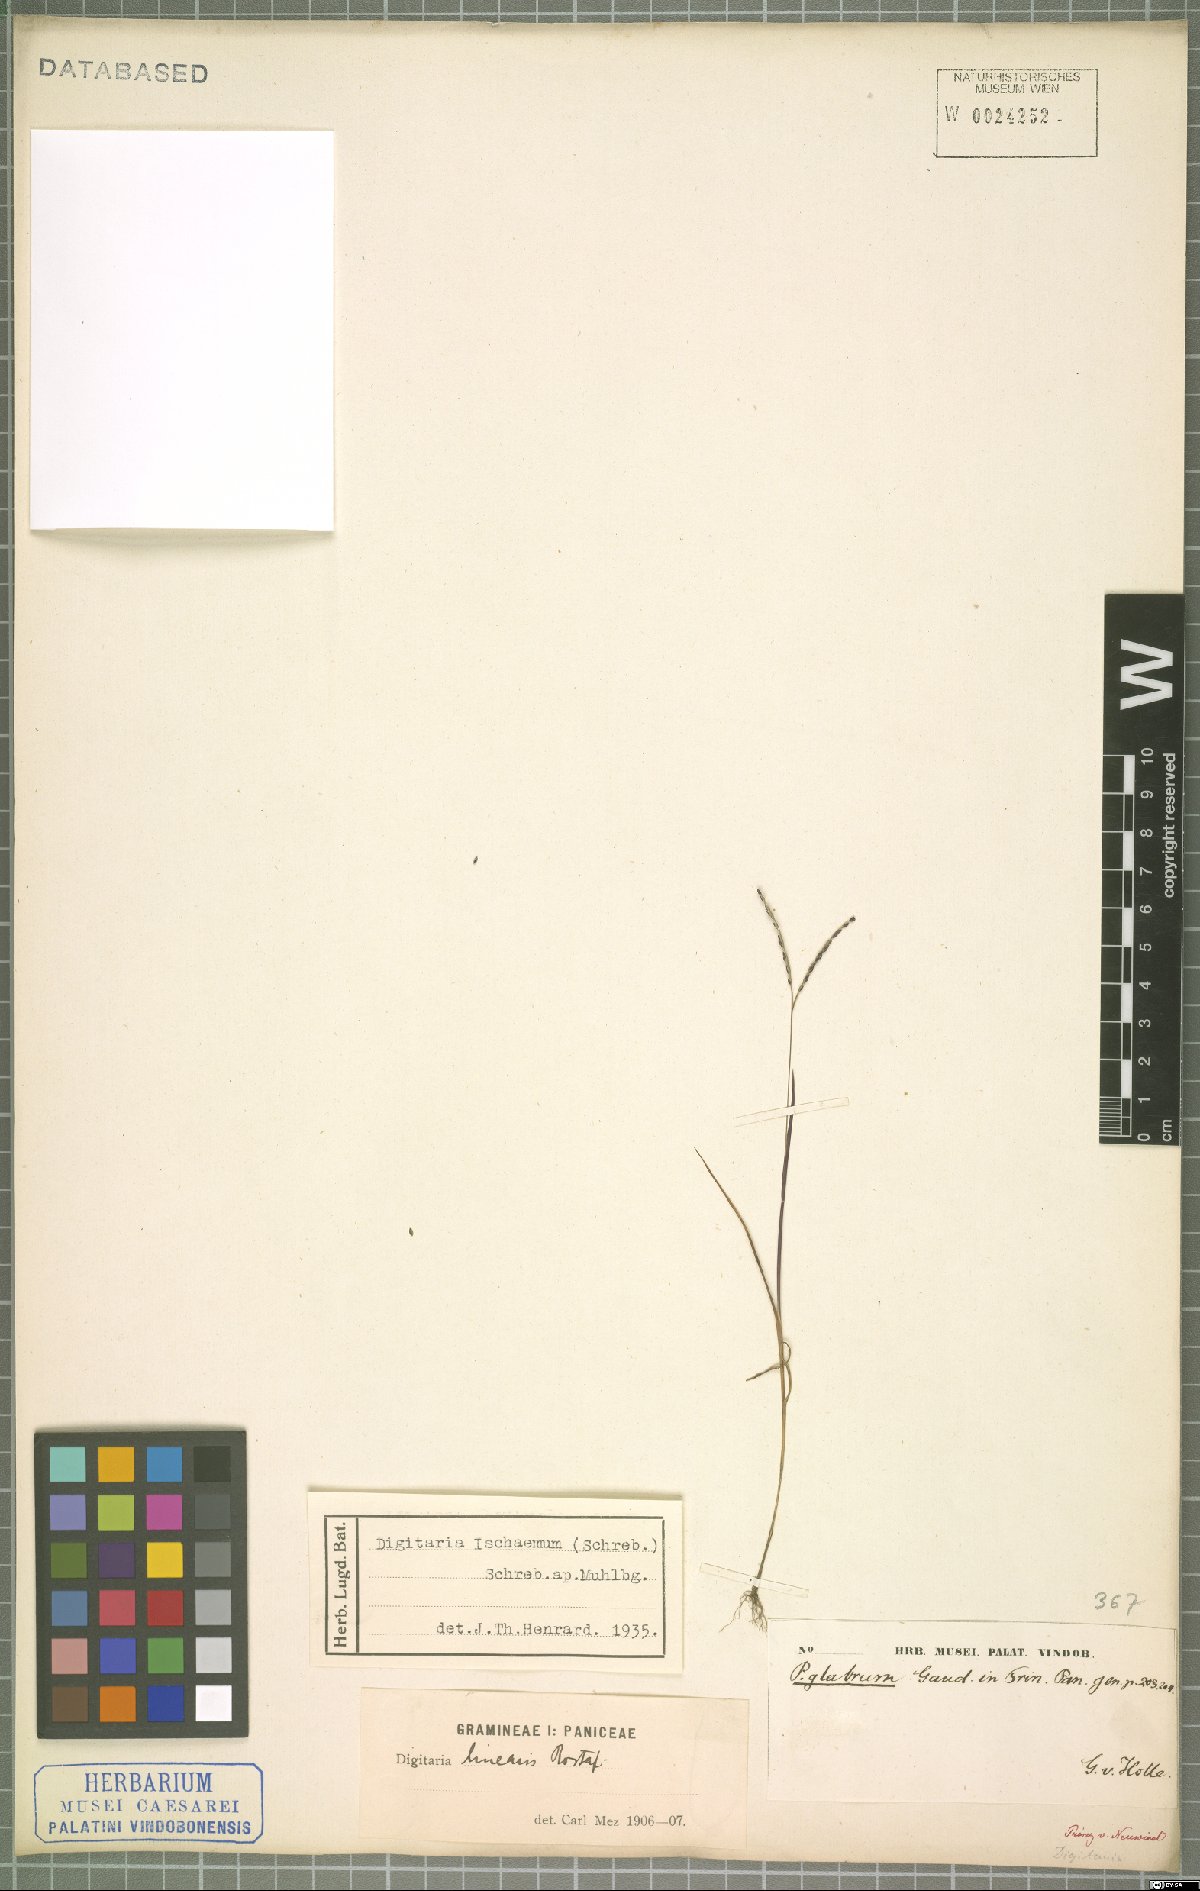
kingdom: Plantae
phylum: Tracheophyta
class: Liliopsida
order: Poales
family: Poaceae
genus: Digitaria
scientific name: Digitaria ischaemum
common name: Smooth crabgrass
